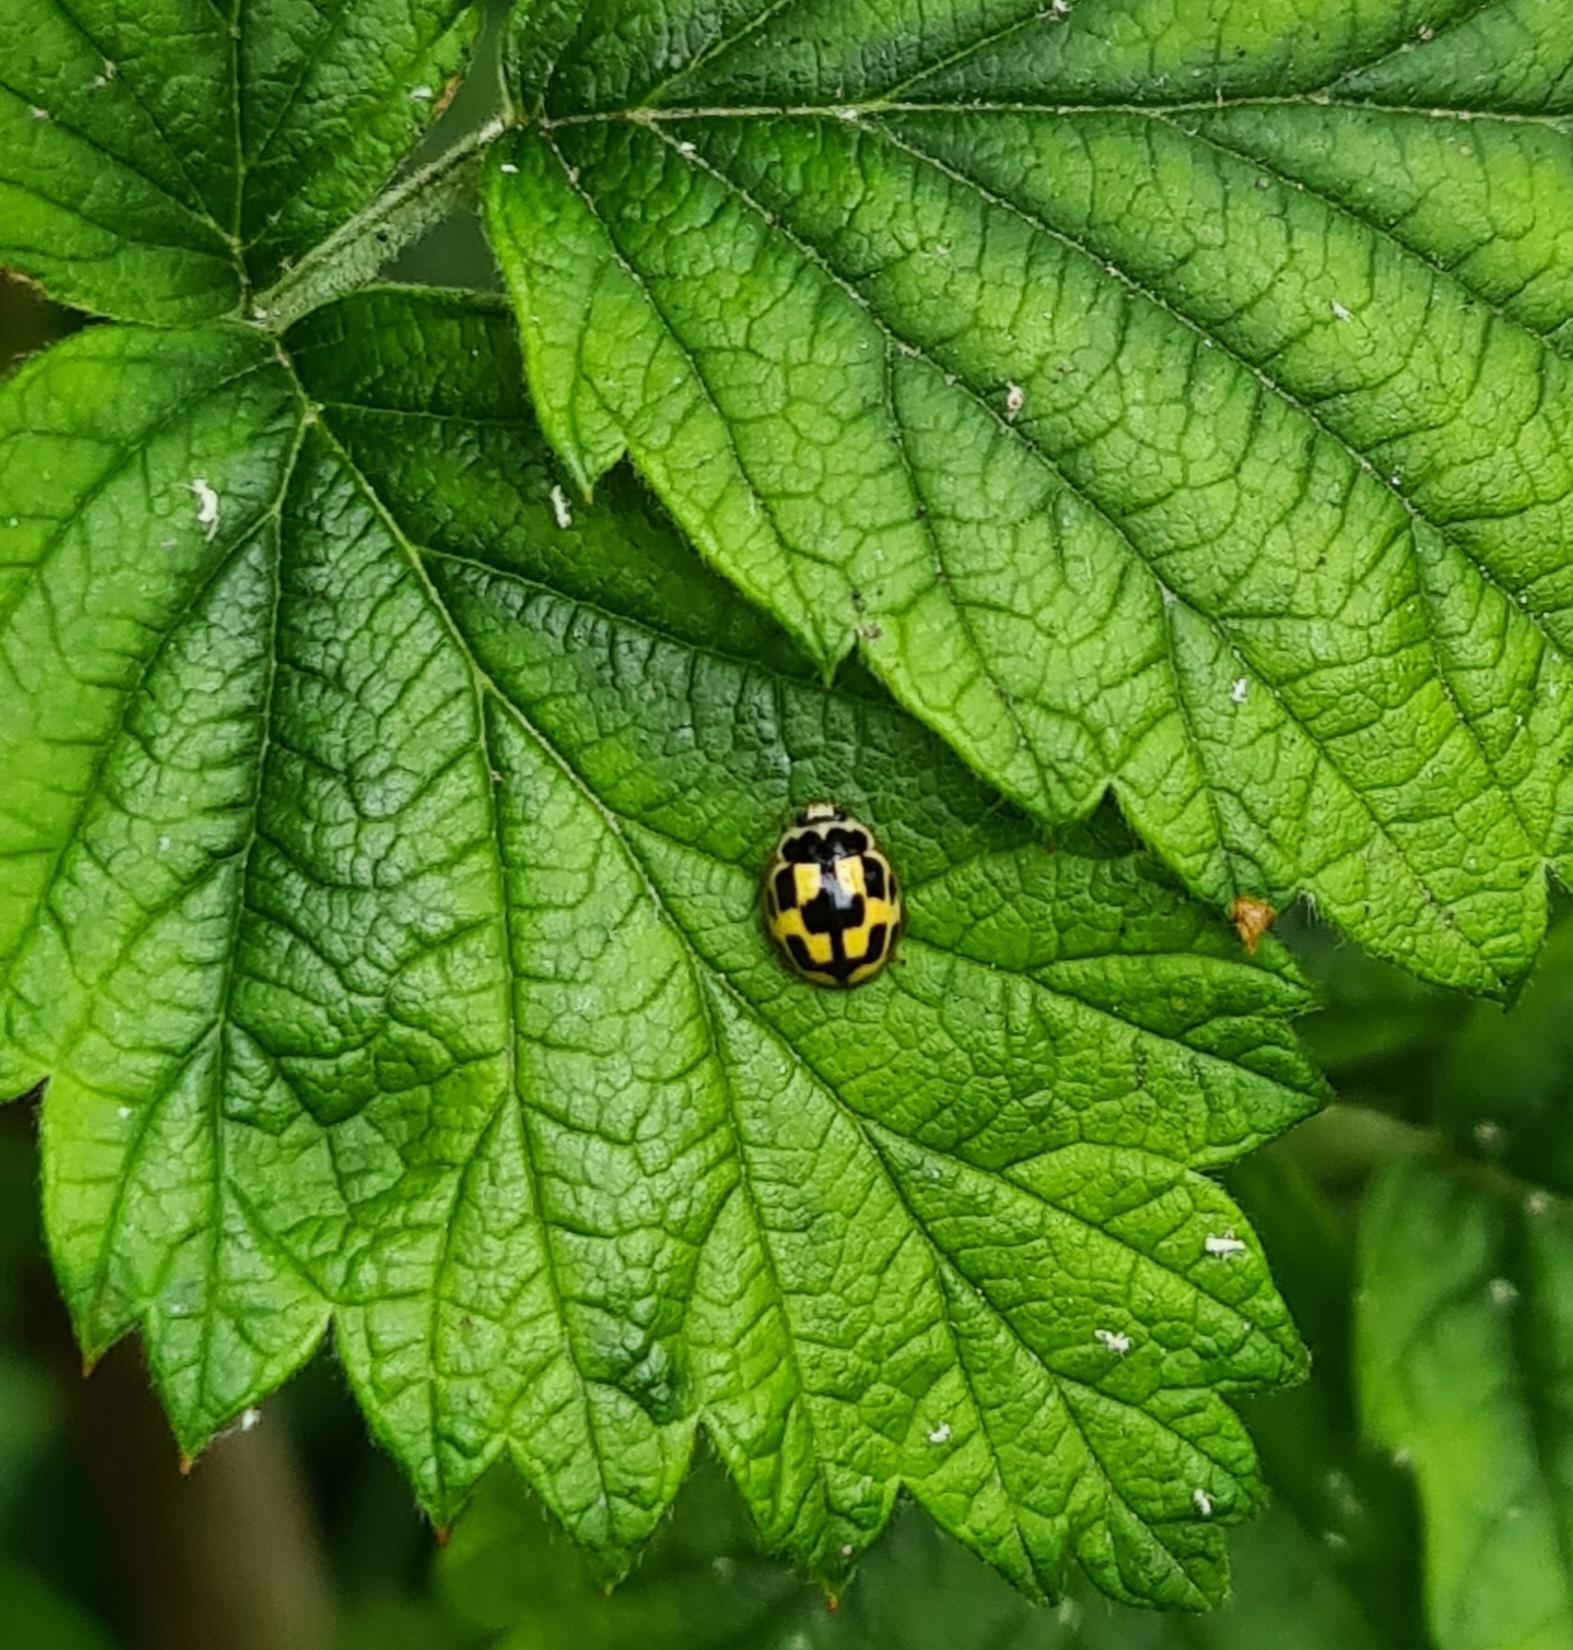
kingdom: Animalia
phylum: Arthropoda
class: Insecta
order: Coleoptera
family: Coccinellidae
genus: Propylaea
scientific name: Propylaea quatuordecimpunctata
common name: Skakbræt
